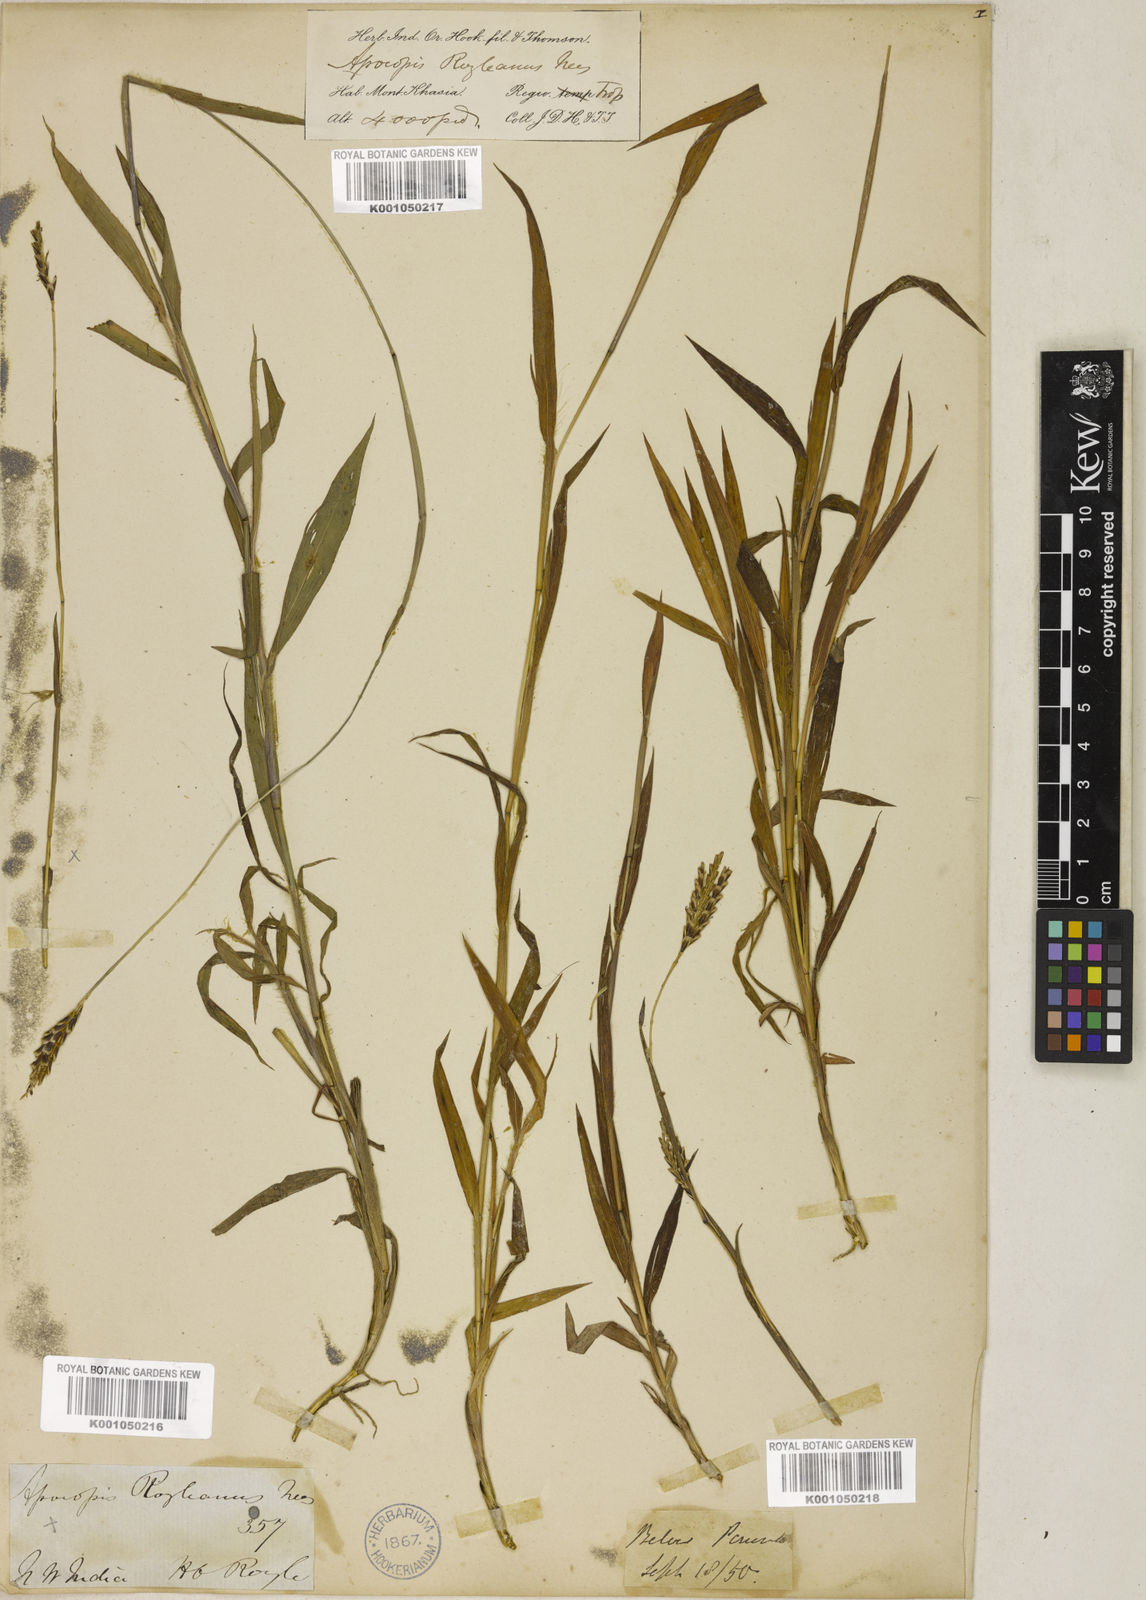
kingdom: Plantae
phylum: Tracheophyta
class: Liliopsida
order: Poales
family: Poaceae
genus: Apocopis
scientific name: Apocopis paleaceus
